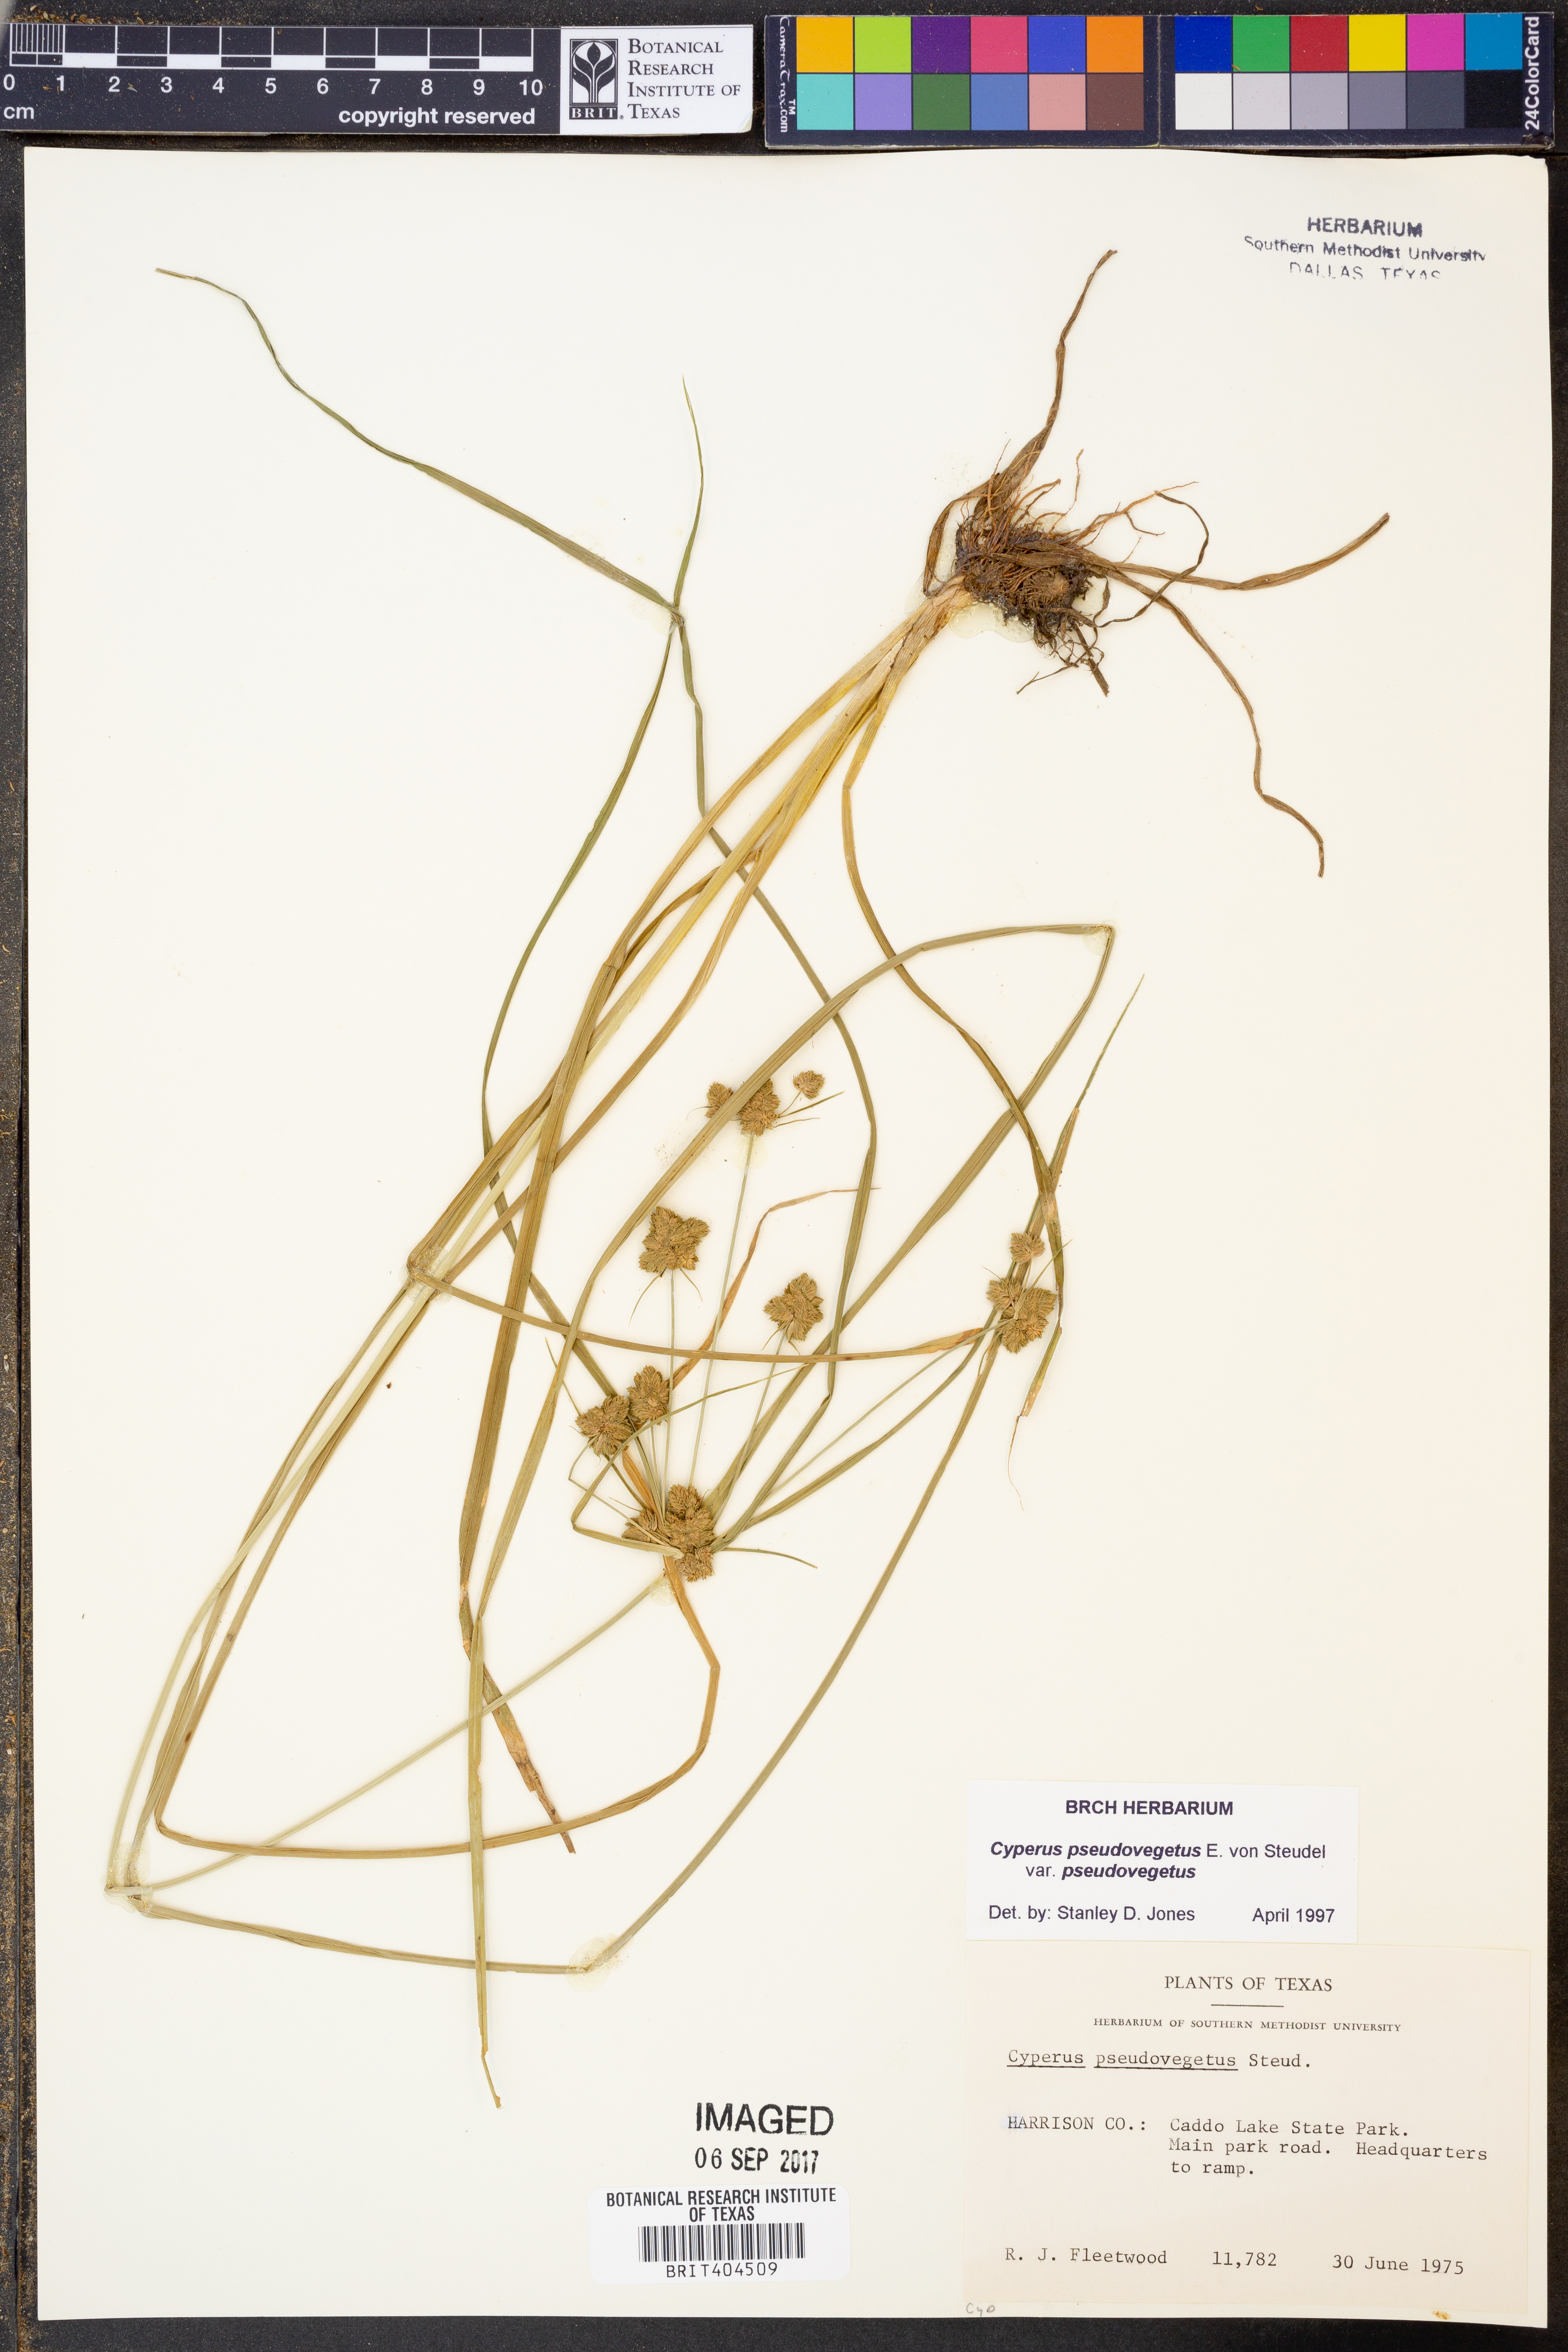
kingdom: Plantae
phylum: Tracheophyta
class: Liliopsida
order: Poales
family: Cyperaceae
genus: Cyperus
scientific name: Cyperus pseudovegetus
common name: Marsh flat sedge
